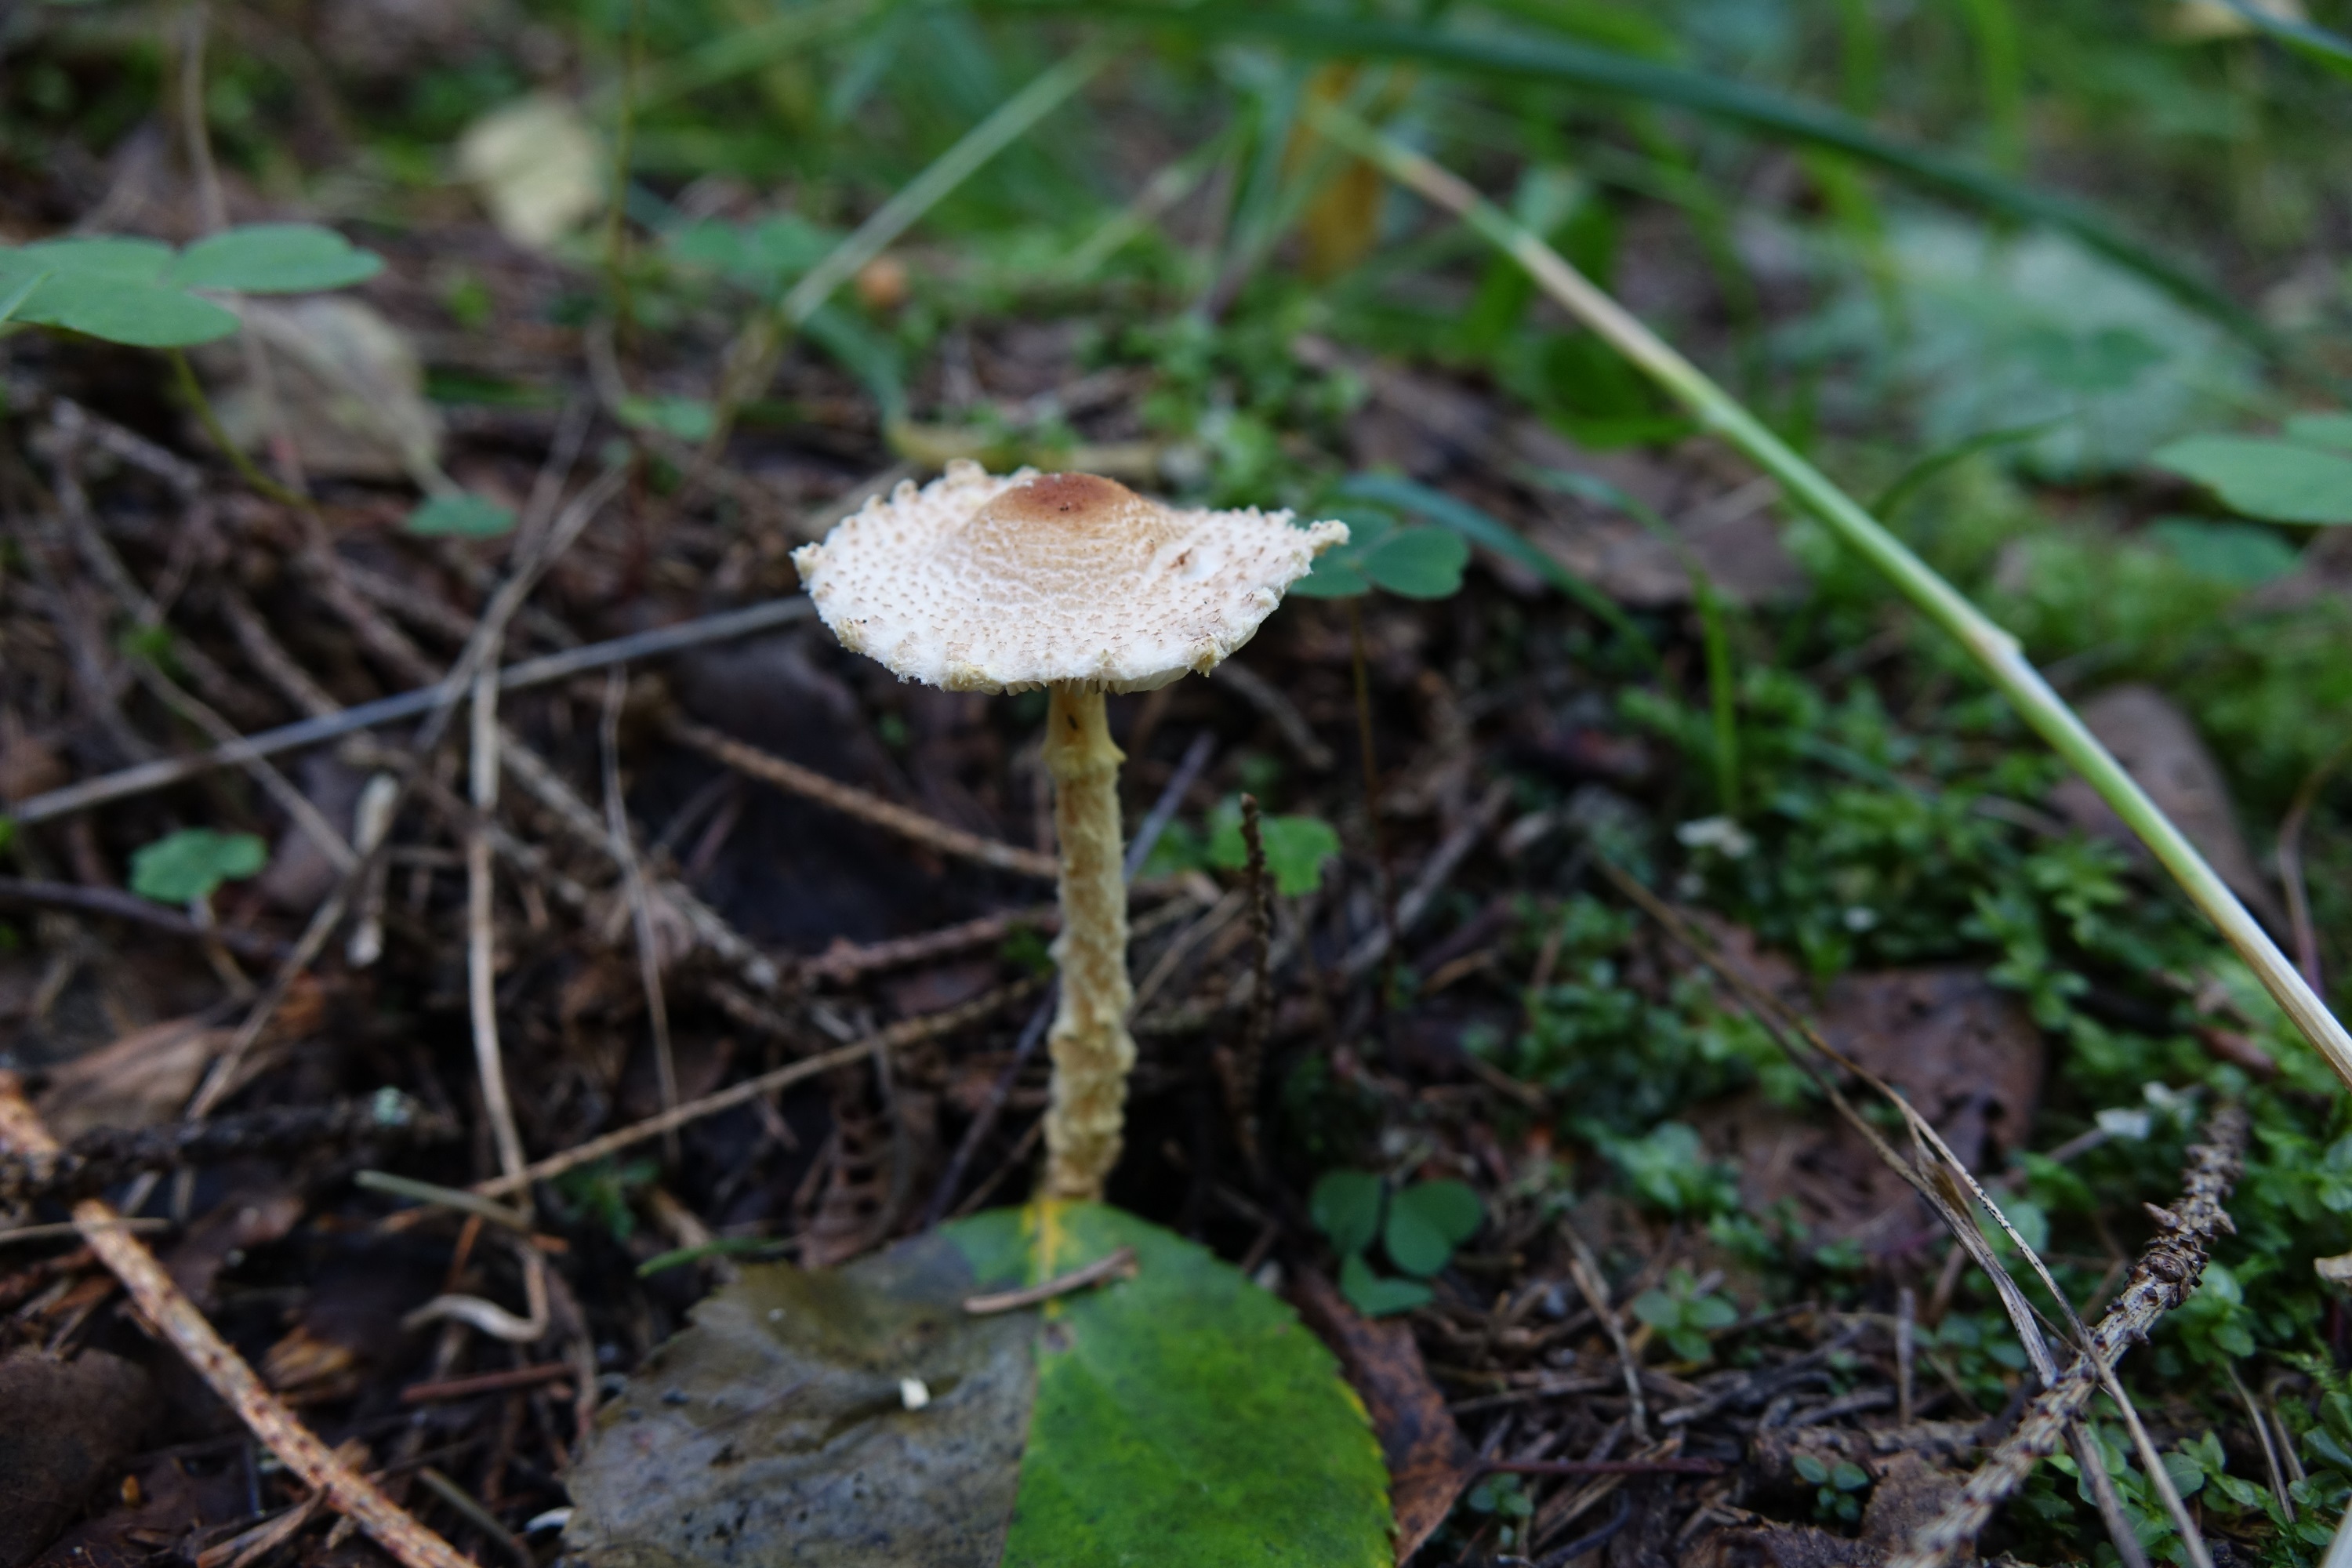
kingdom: Fungi
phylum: Basidiomycota
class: Agaricomycetes
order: Agaricales
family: Agaricaceae
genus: Lepiota
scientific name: Lepiota magnispora
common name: Yellowfoot dapperling
